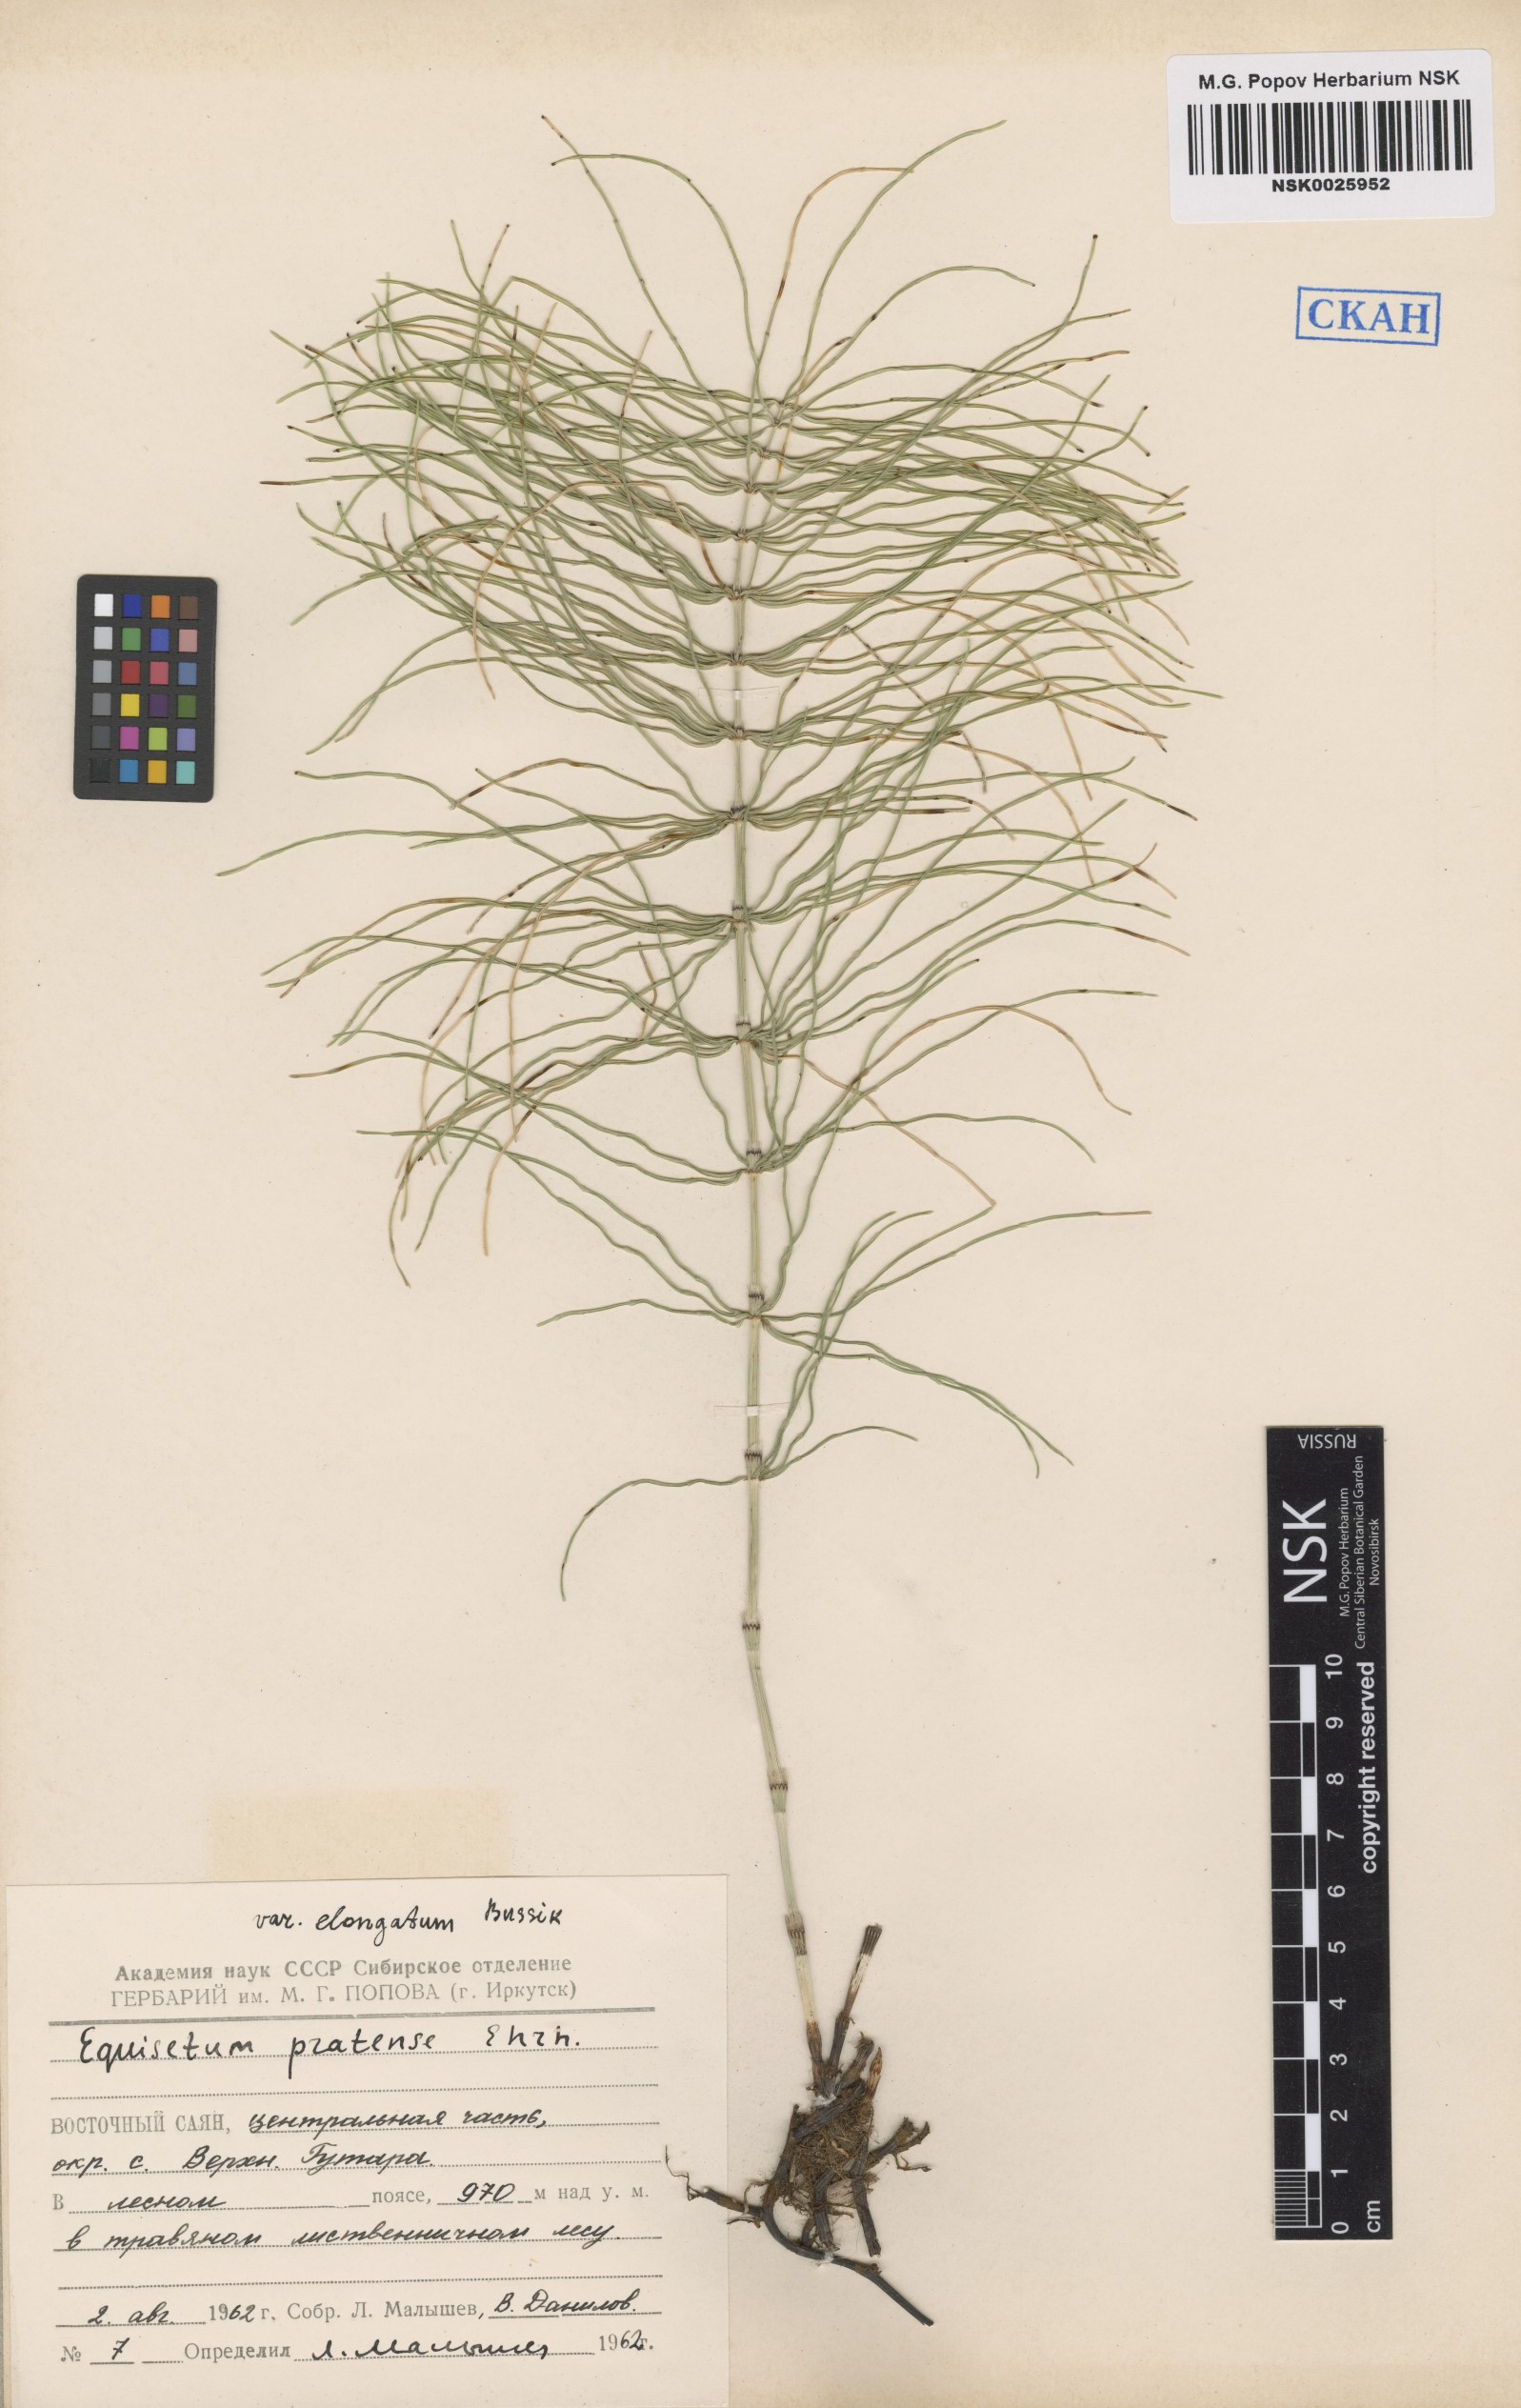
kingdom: Plantae
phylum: Tracheophyta
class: Polypodiopsida
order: Equisetales
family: Equisetaceae
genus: Equisetum
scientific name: Equisetum pratense
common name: Meadow horsetail
